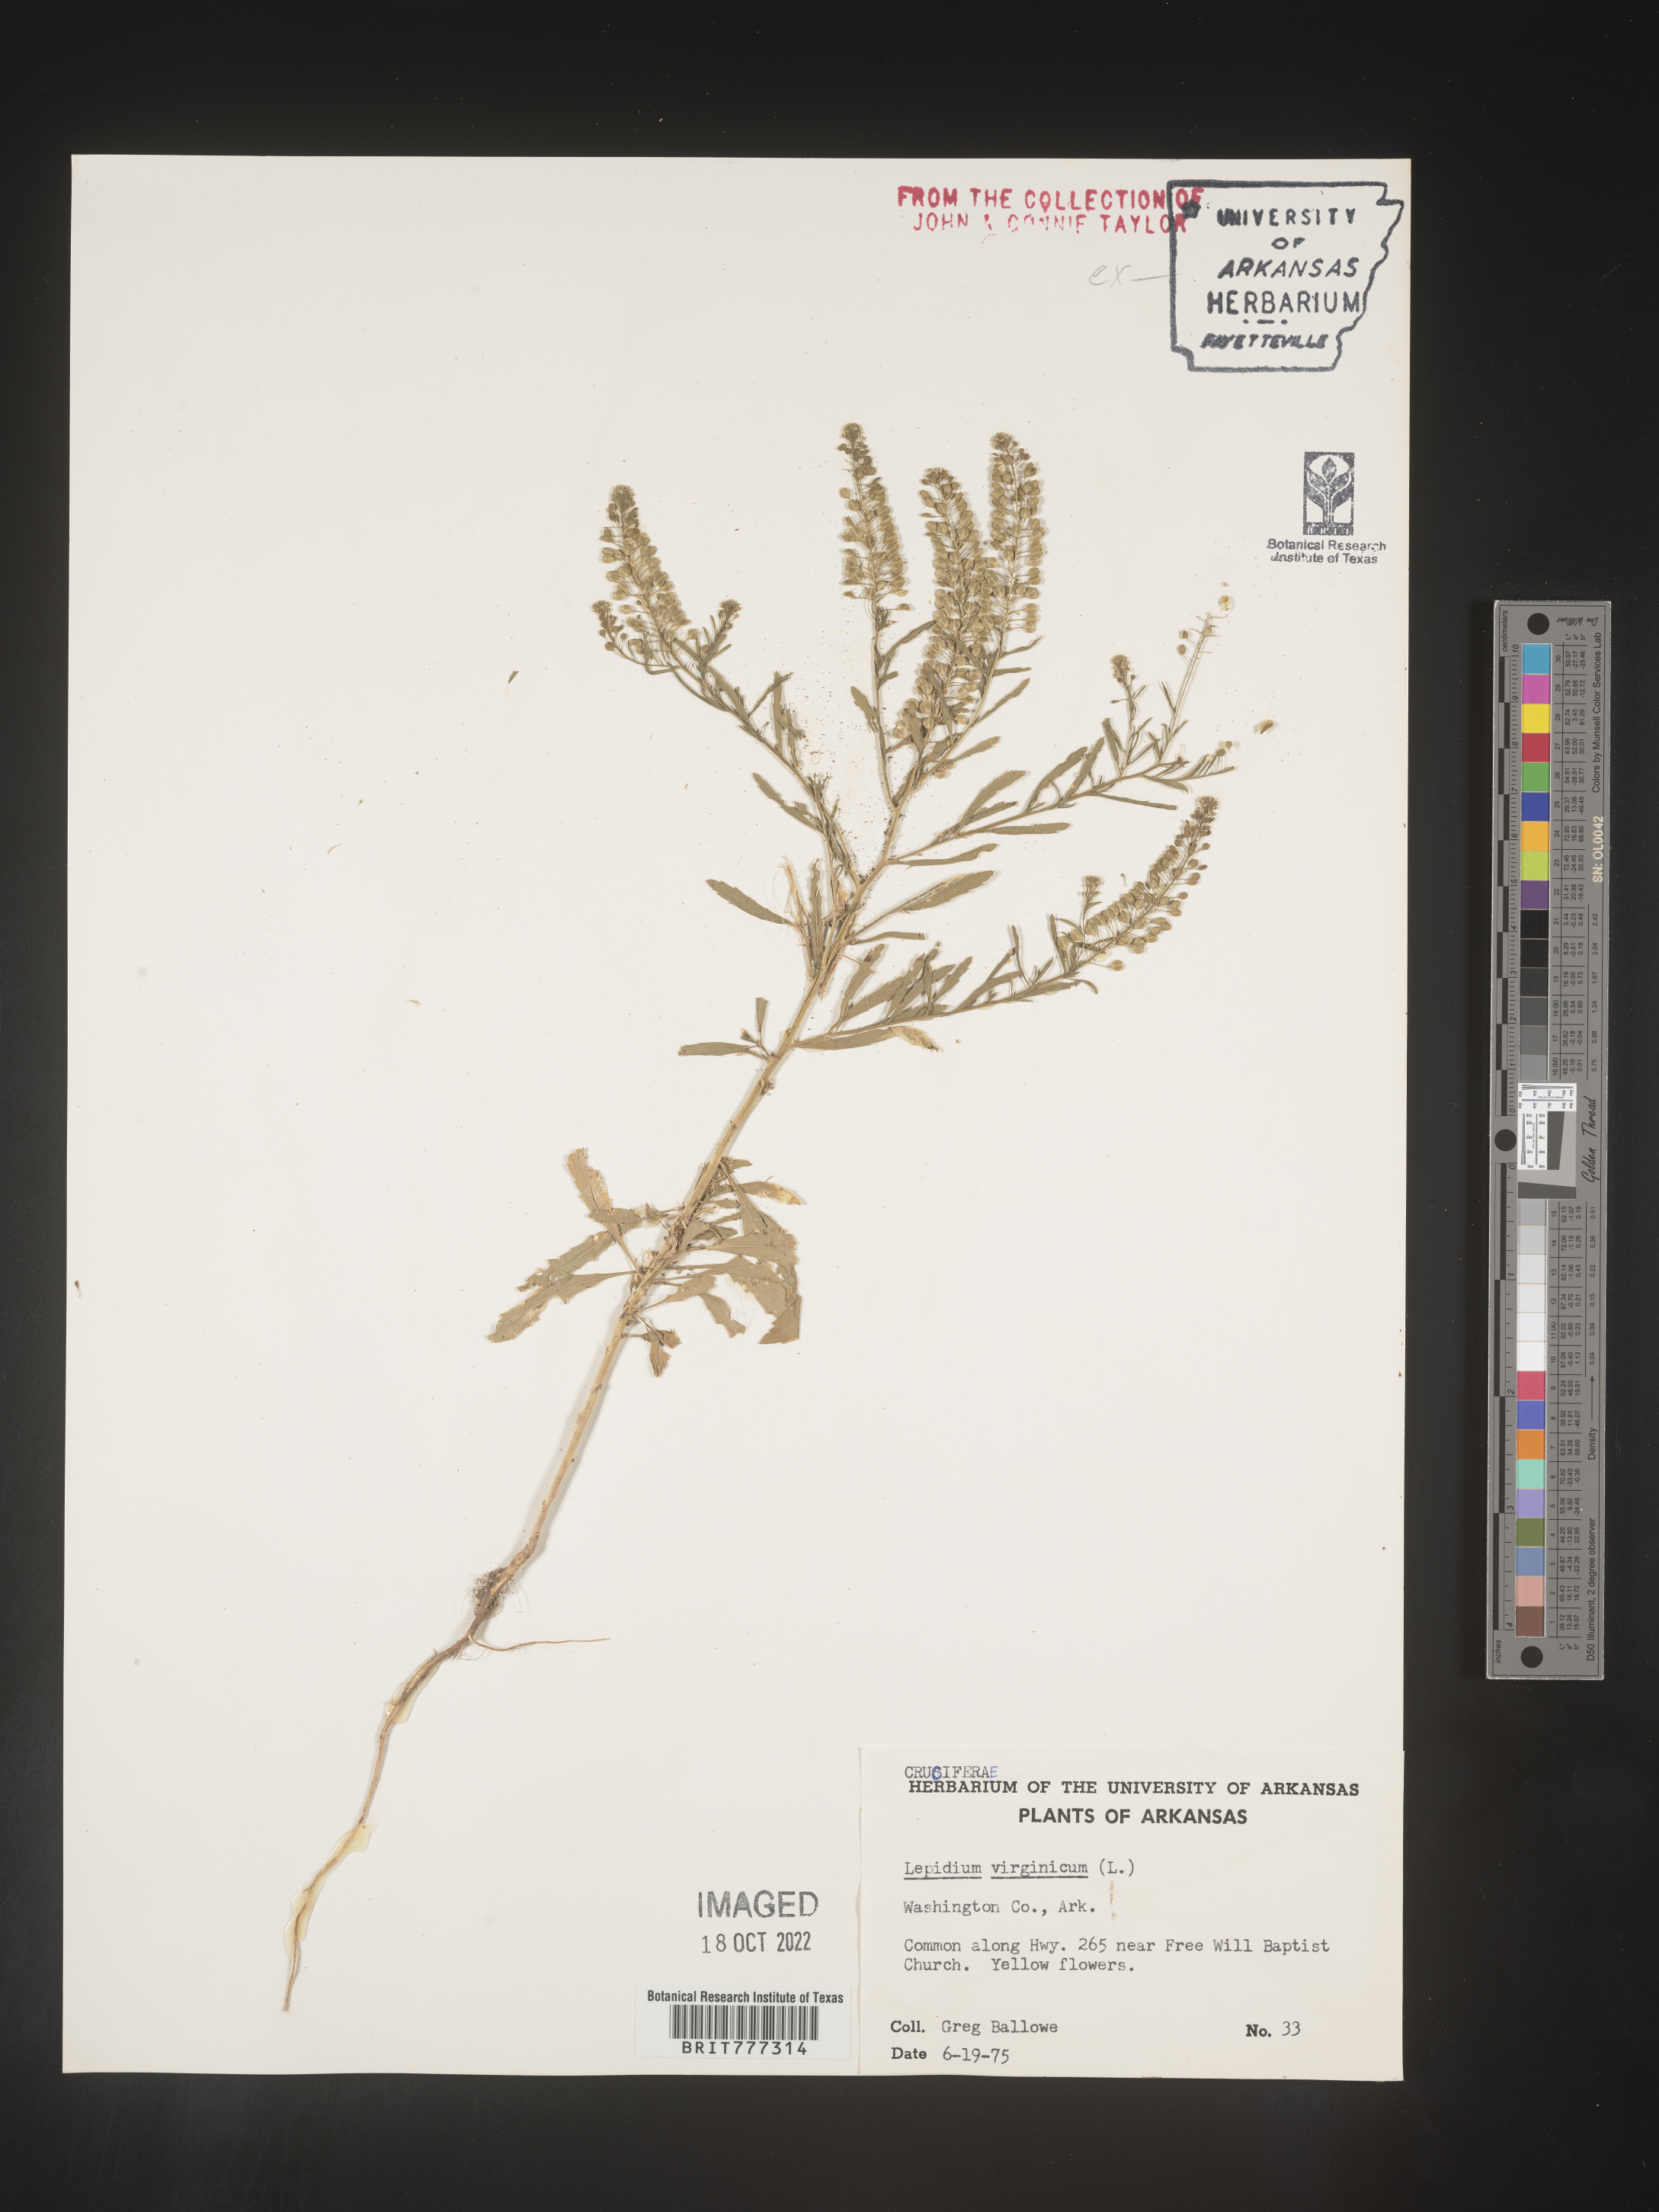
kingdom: Plantae
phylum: Tracheophyta
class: Magnoliopsida
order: Brassicales
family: Brassicaceae
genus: Lepidium
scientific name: Lepidium virginicum
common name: Least pepperwort
